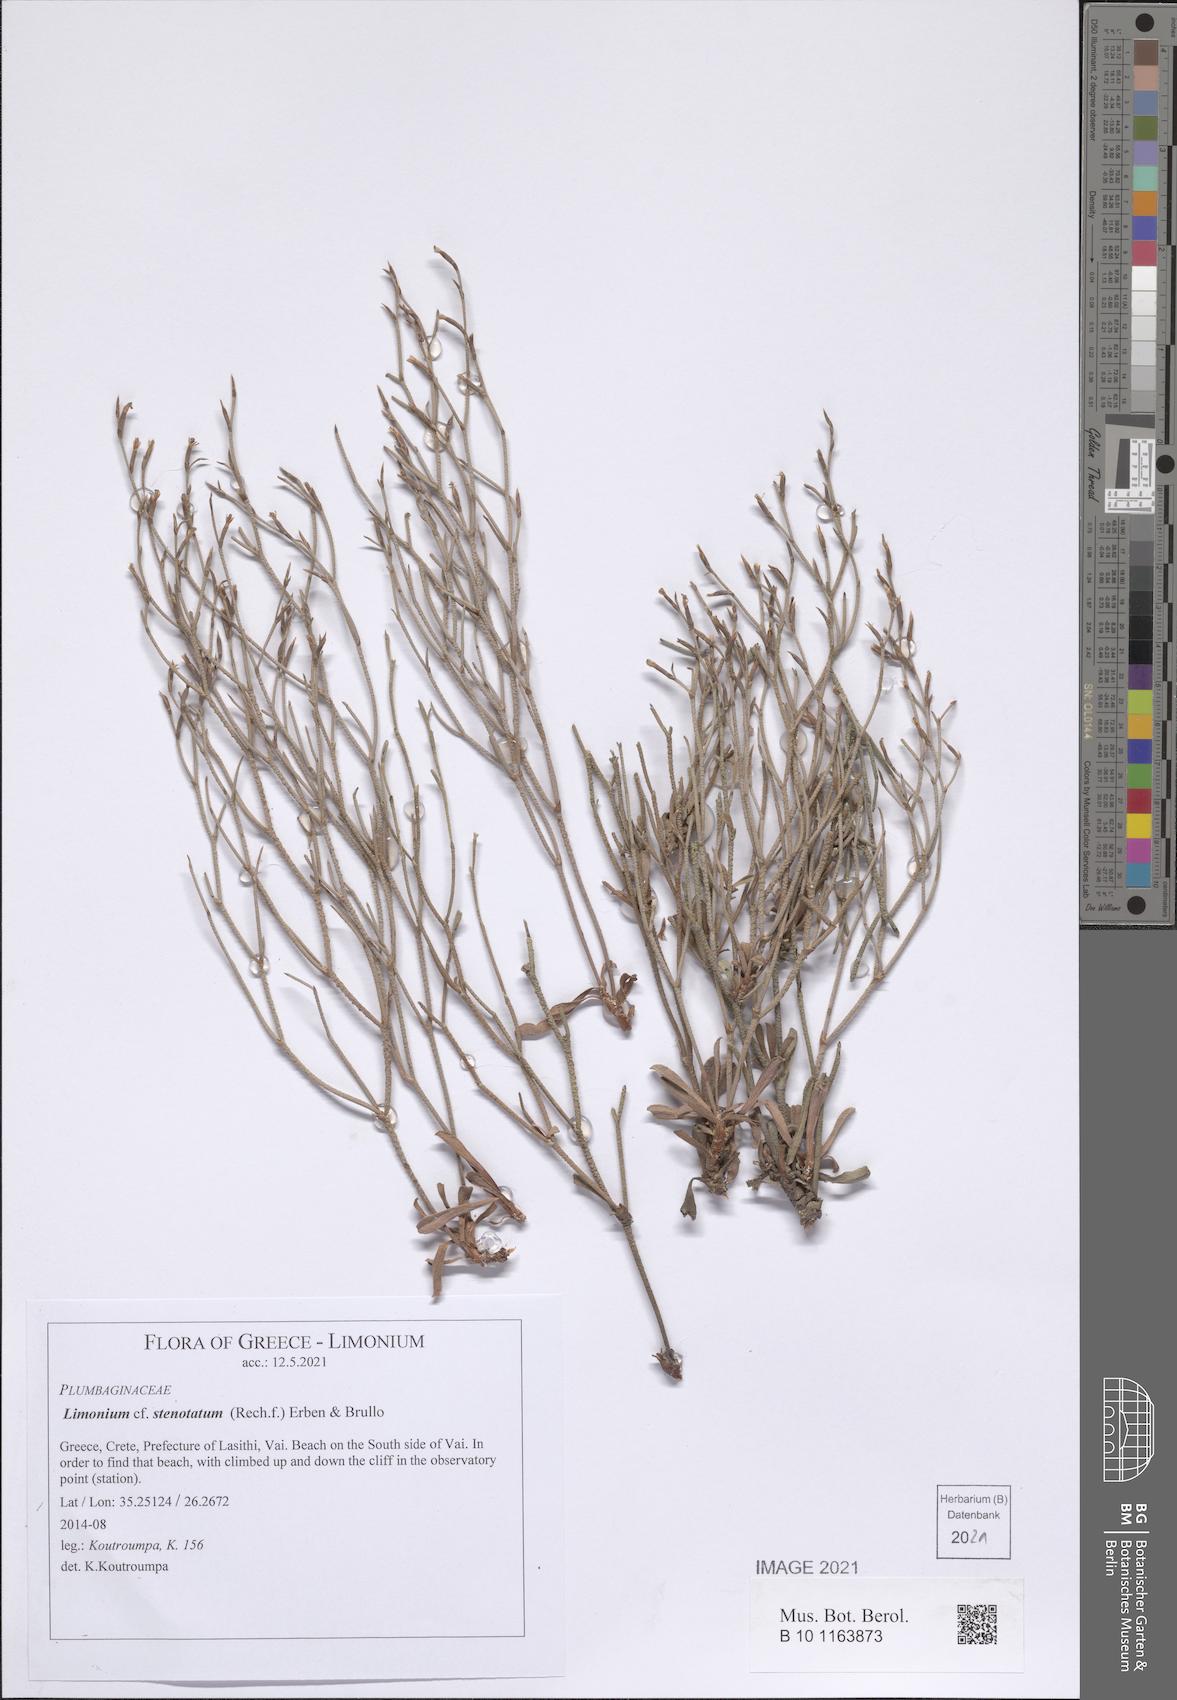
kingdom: Plantae
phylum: Tracheophyta
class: Magnoliopsida
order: Caryophyllales
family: Plumbaginaceae
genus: Limonium
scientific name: Limonium stenotatum
